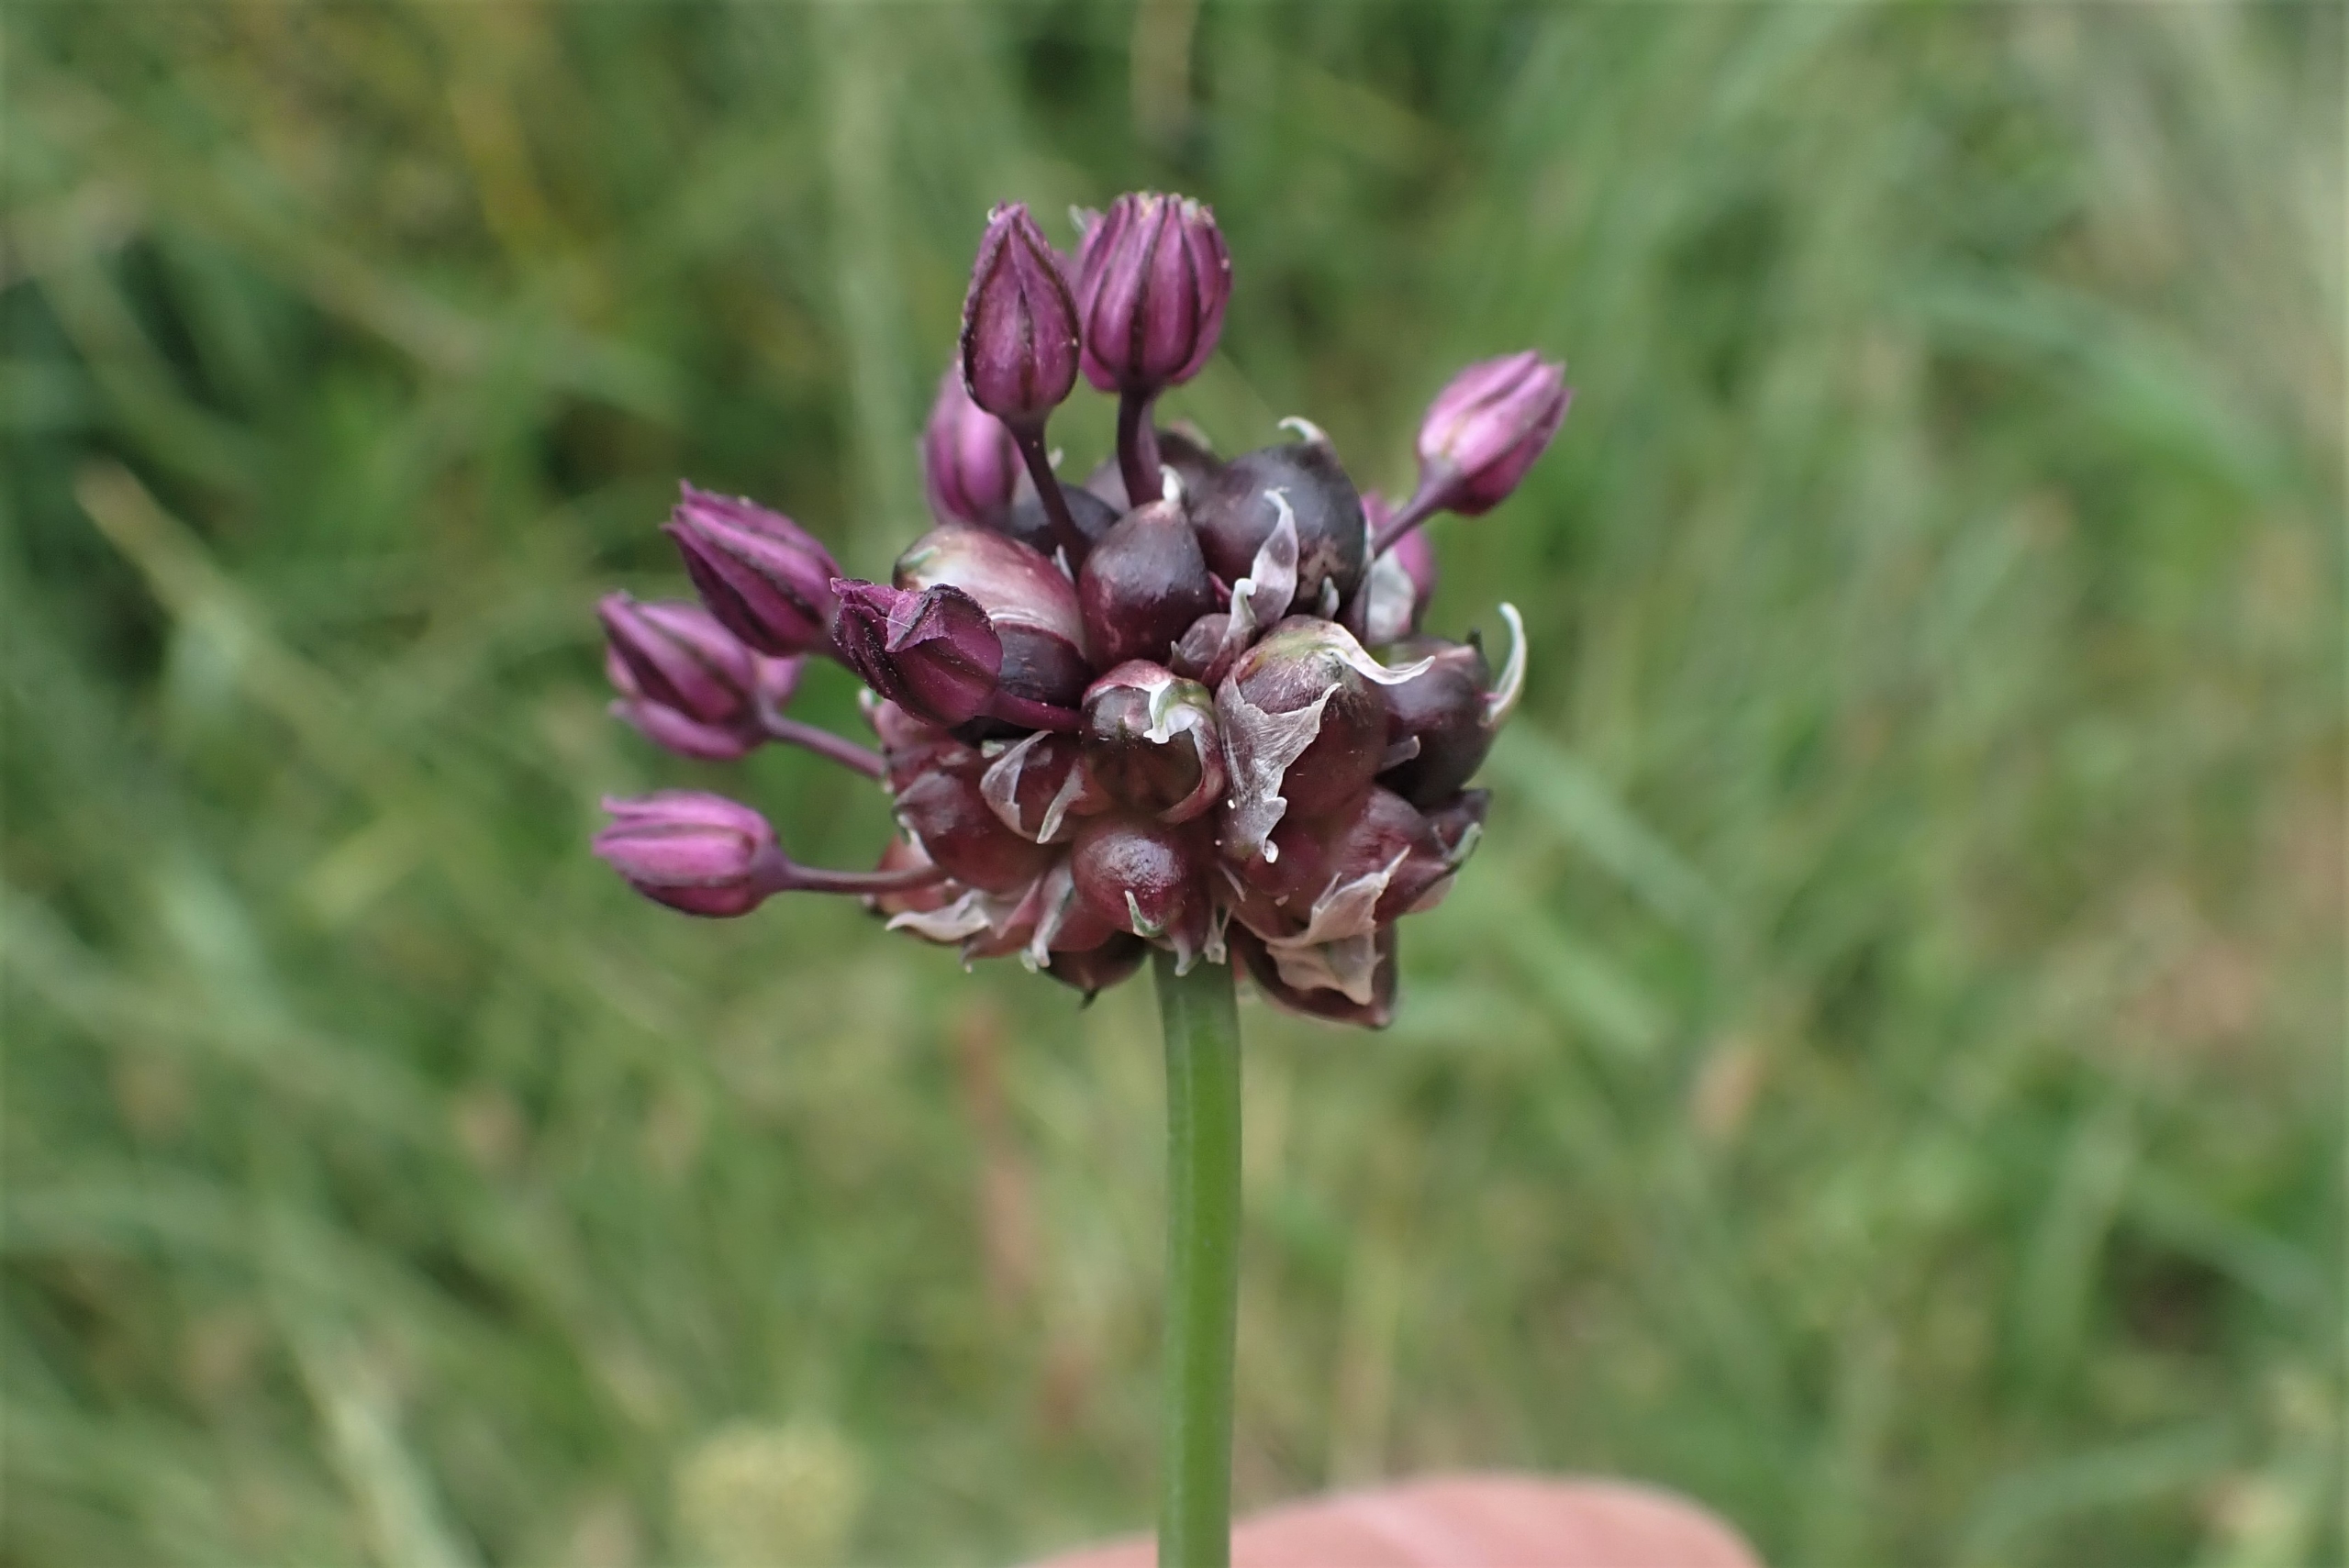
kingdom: Plantae
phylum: Tracheophyta
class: Liliopsida
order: Asparagales
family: Amaryllidaceae
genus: Allium
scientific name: Allium scorodoprasum
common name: Skov-løg
